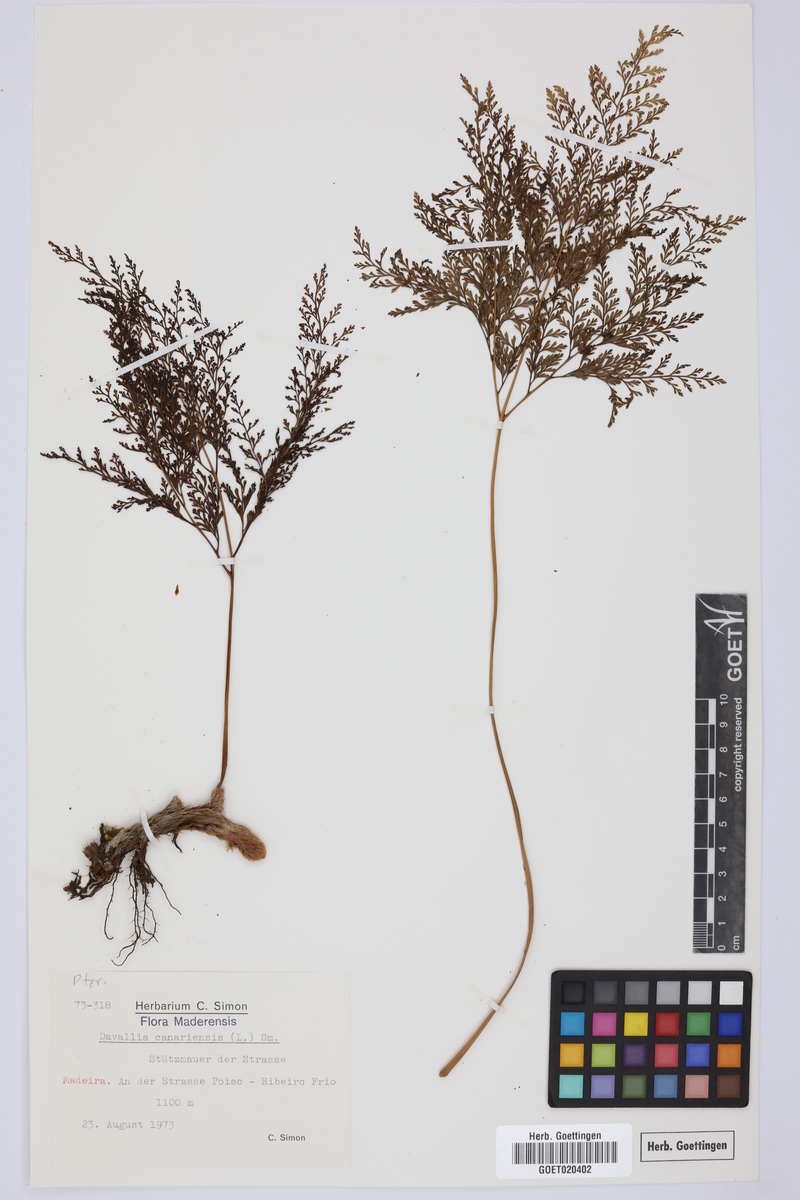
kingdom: Plantae
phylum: Tracheophyta
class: Polypodiopsida
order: Polypodiales
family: Davalliaceae
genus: Davallia
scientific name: Davallia canariensis
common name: Hare's-foot fern
